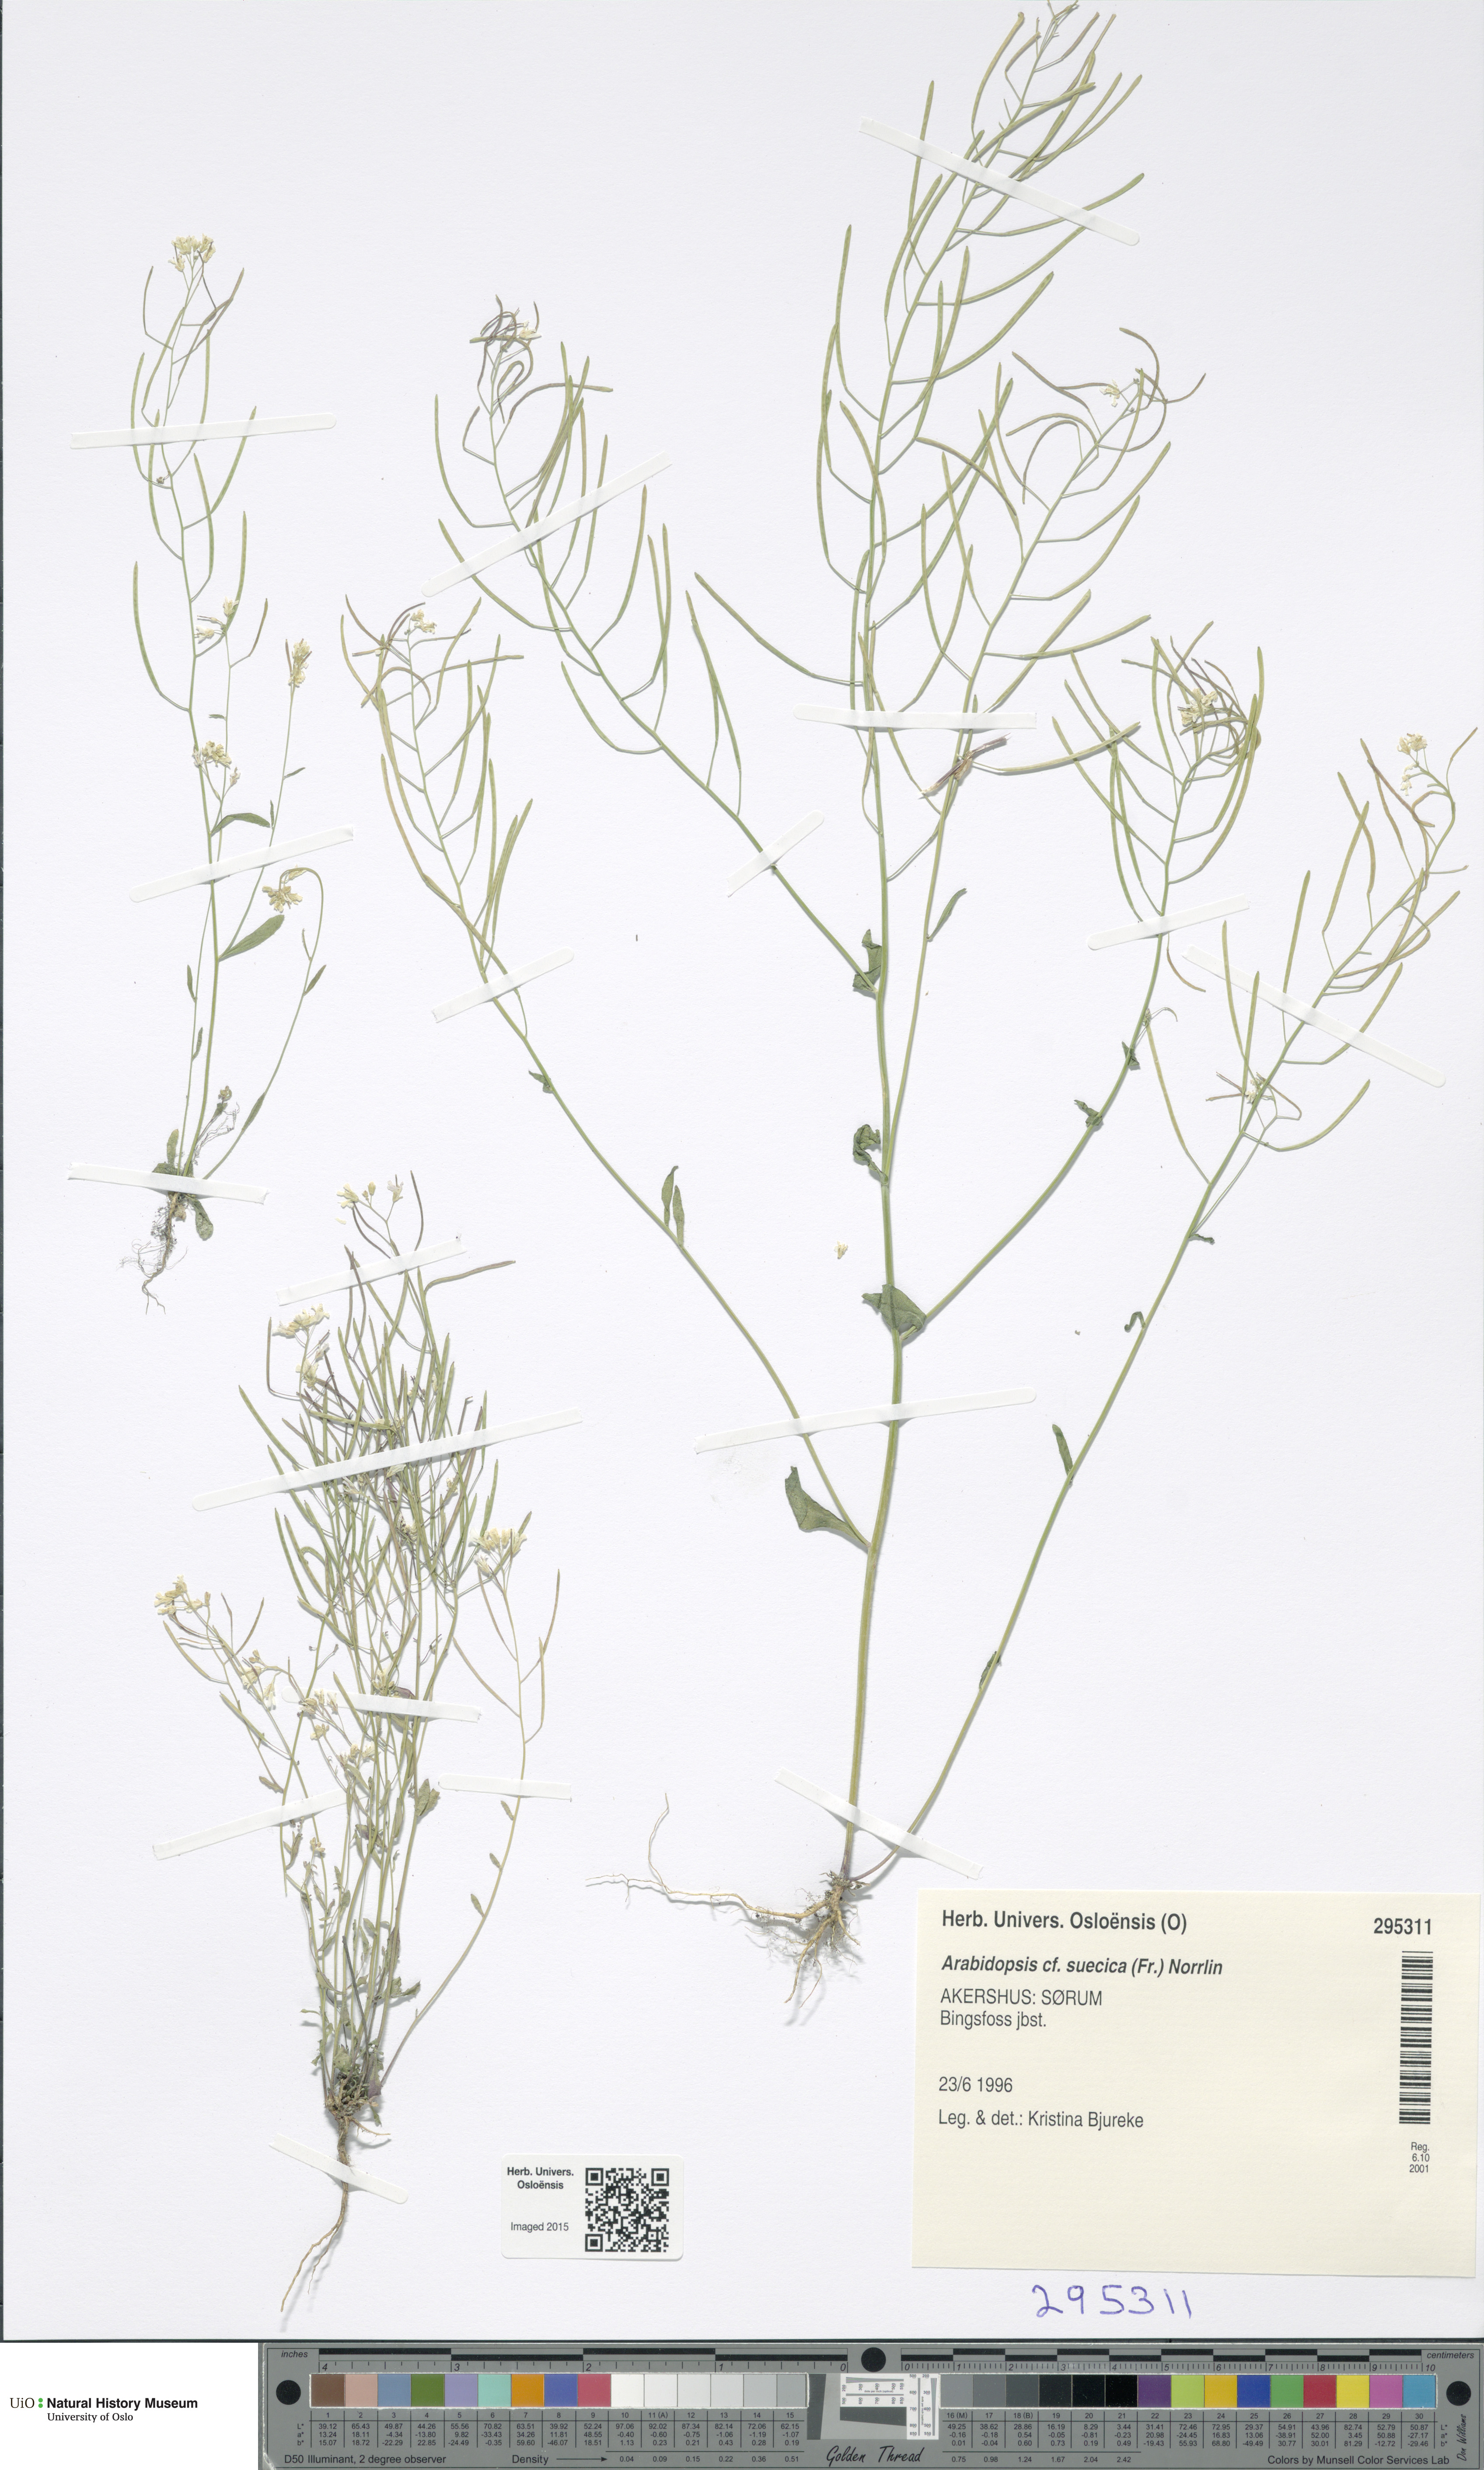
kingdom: Plantae
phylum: Tracheophyta
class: Magnoliopsida
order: Brassicales
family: Brassicaceae
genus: Arabidopsis
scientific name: Arabidopsis suecica
